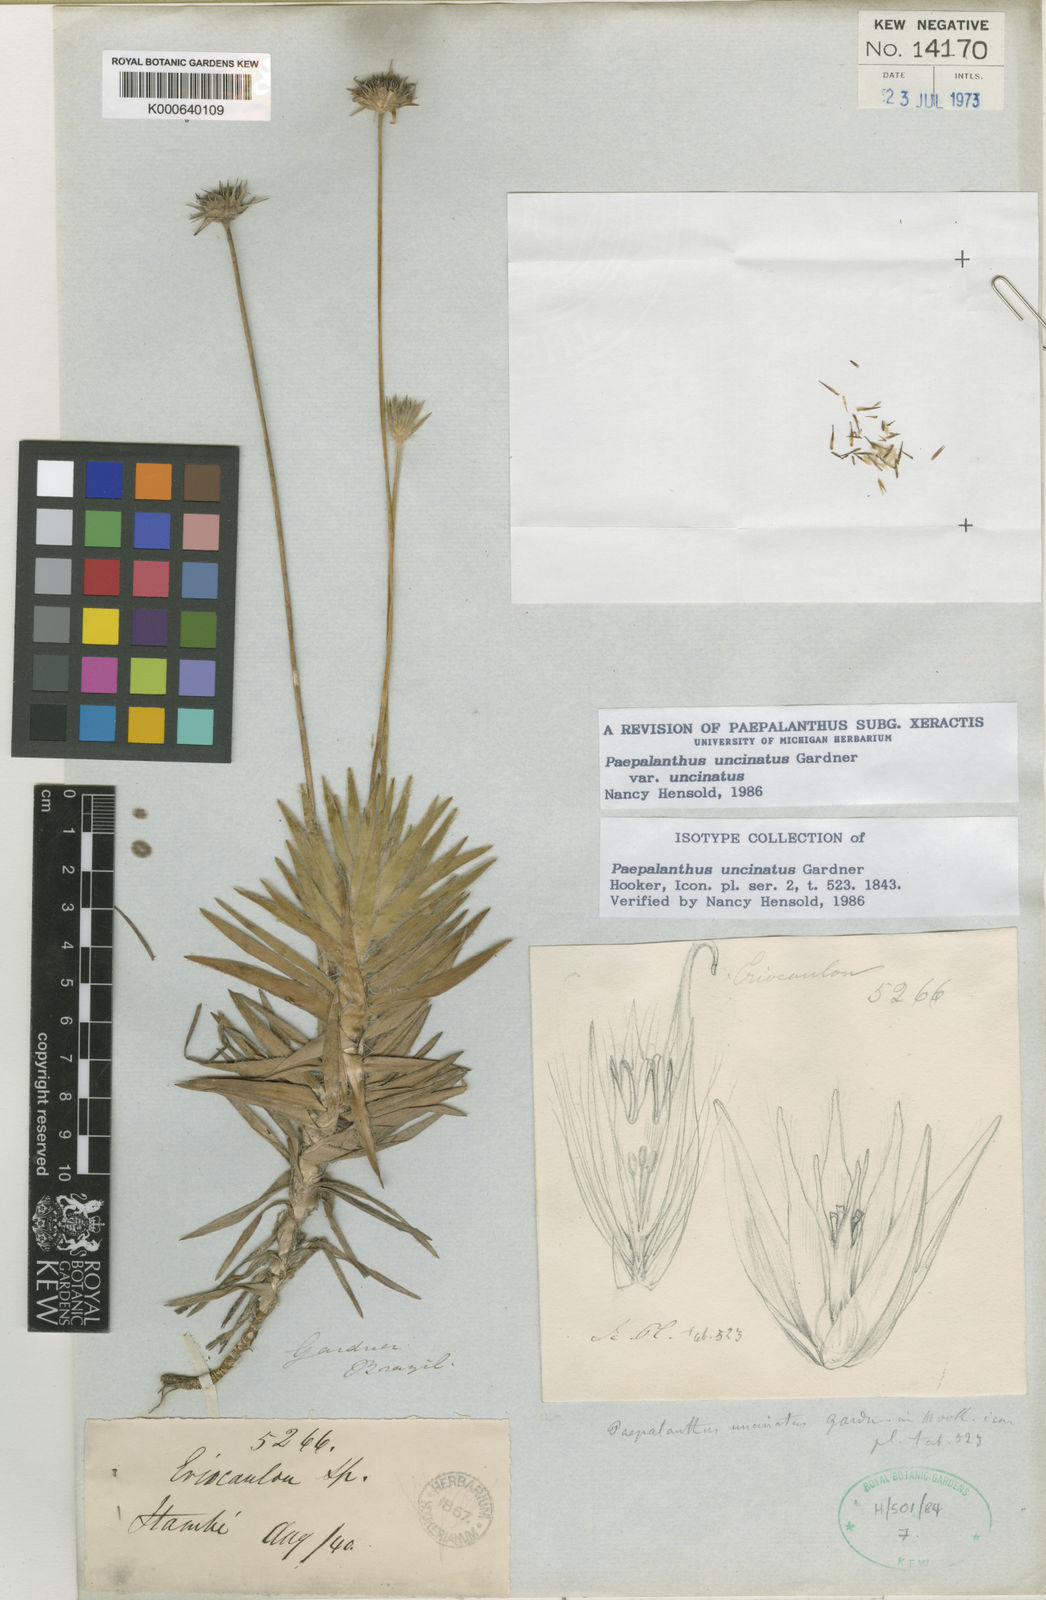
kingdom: Plantae
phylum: Tracheophyta
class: Liliopsida
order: Poales
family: Eriocaulaceae
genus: Paepalanthus
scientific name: Paepalanthus uncinatus
